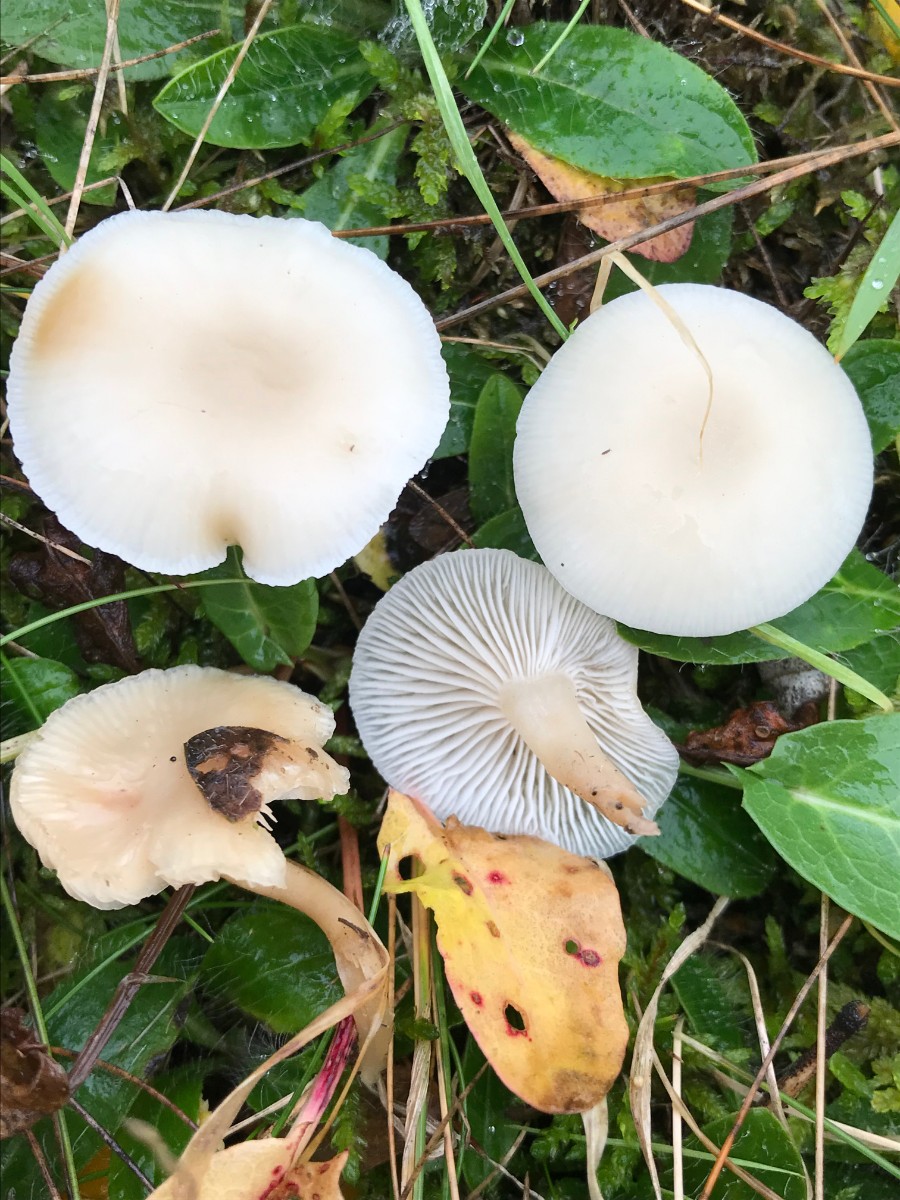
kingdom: Fungi
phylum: Basidiomycota
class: Agaricomycetes
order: Agaricales
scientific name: Agaricales
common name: champignonordenen
